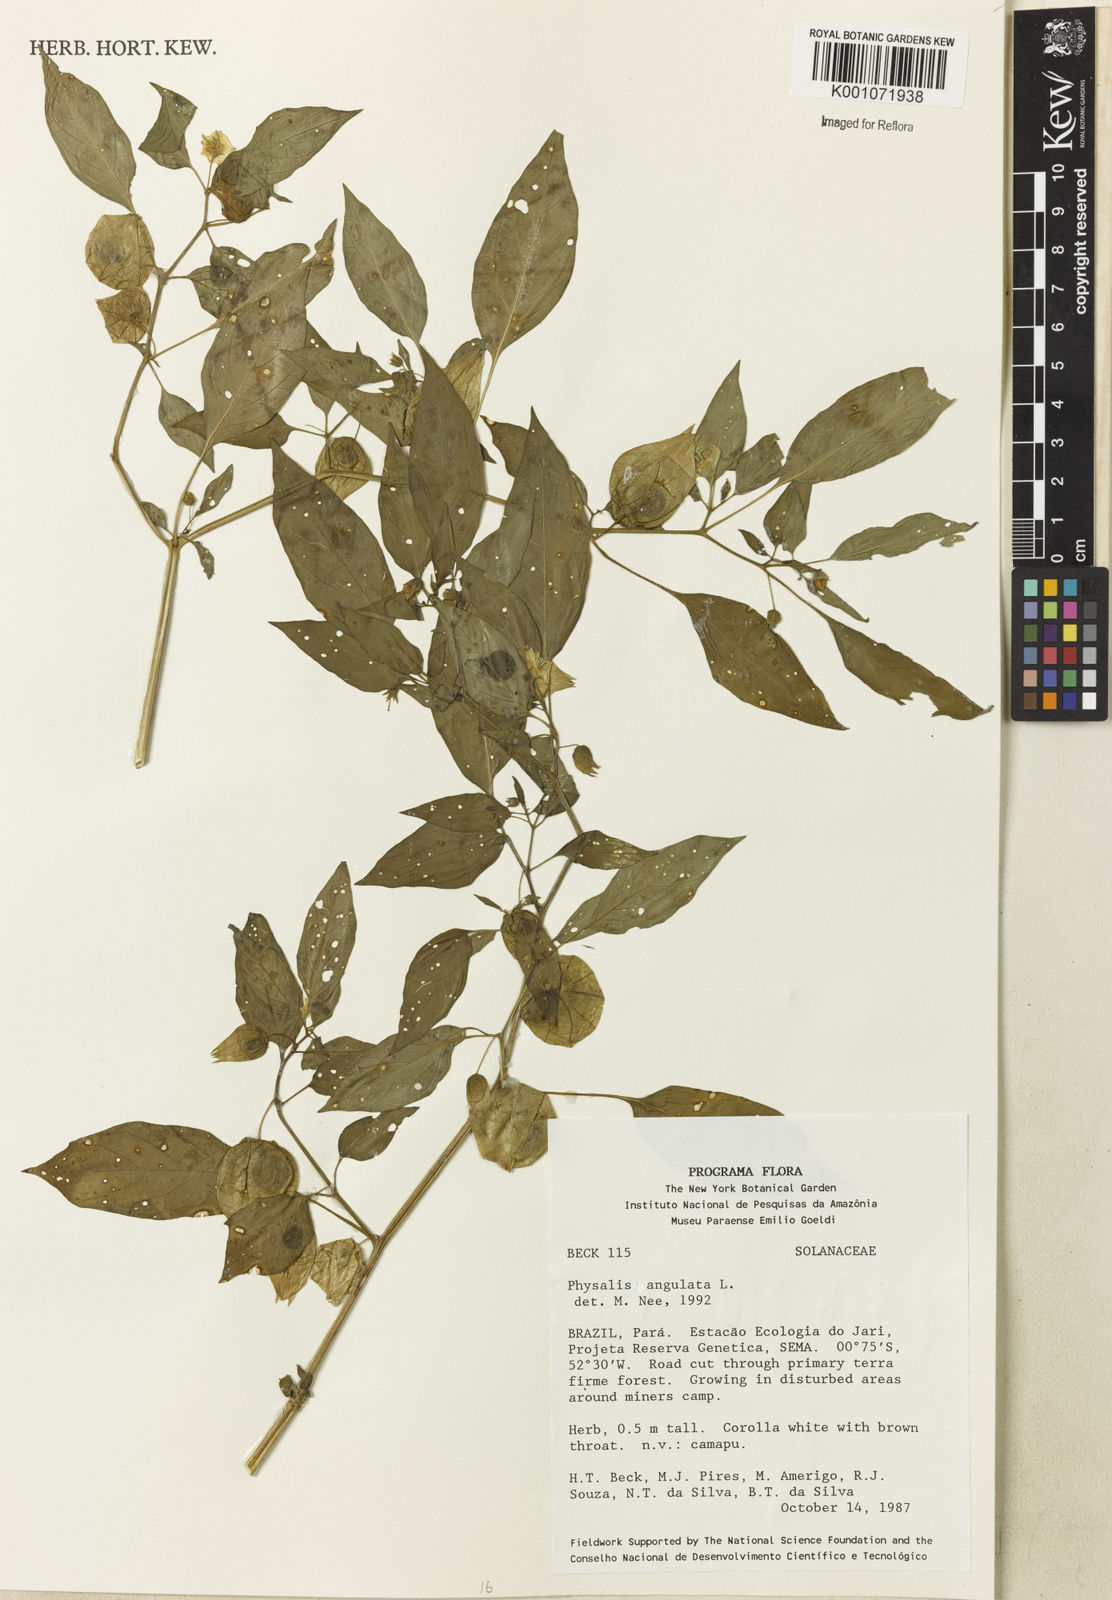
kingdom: Plantae
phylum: Tracheophyta
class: Magnoliopsida
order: Solanales
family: Solanaceae
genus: Physalis
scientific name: Physalis angulata
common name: Angular winter-cherry
